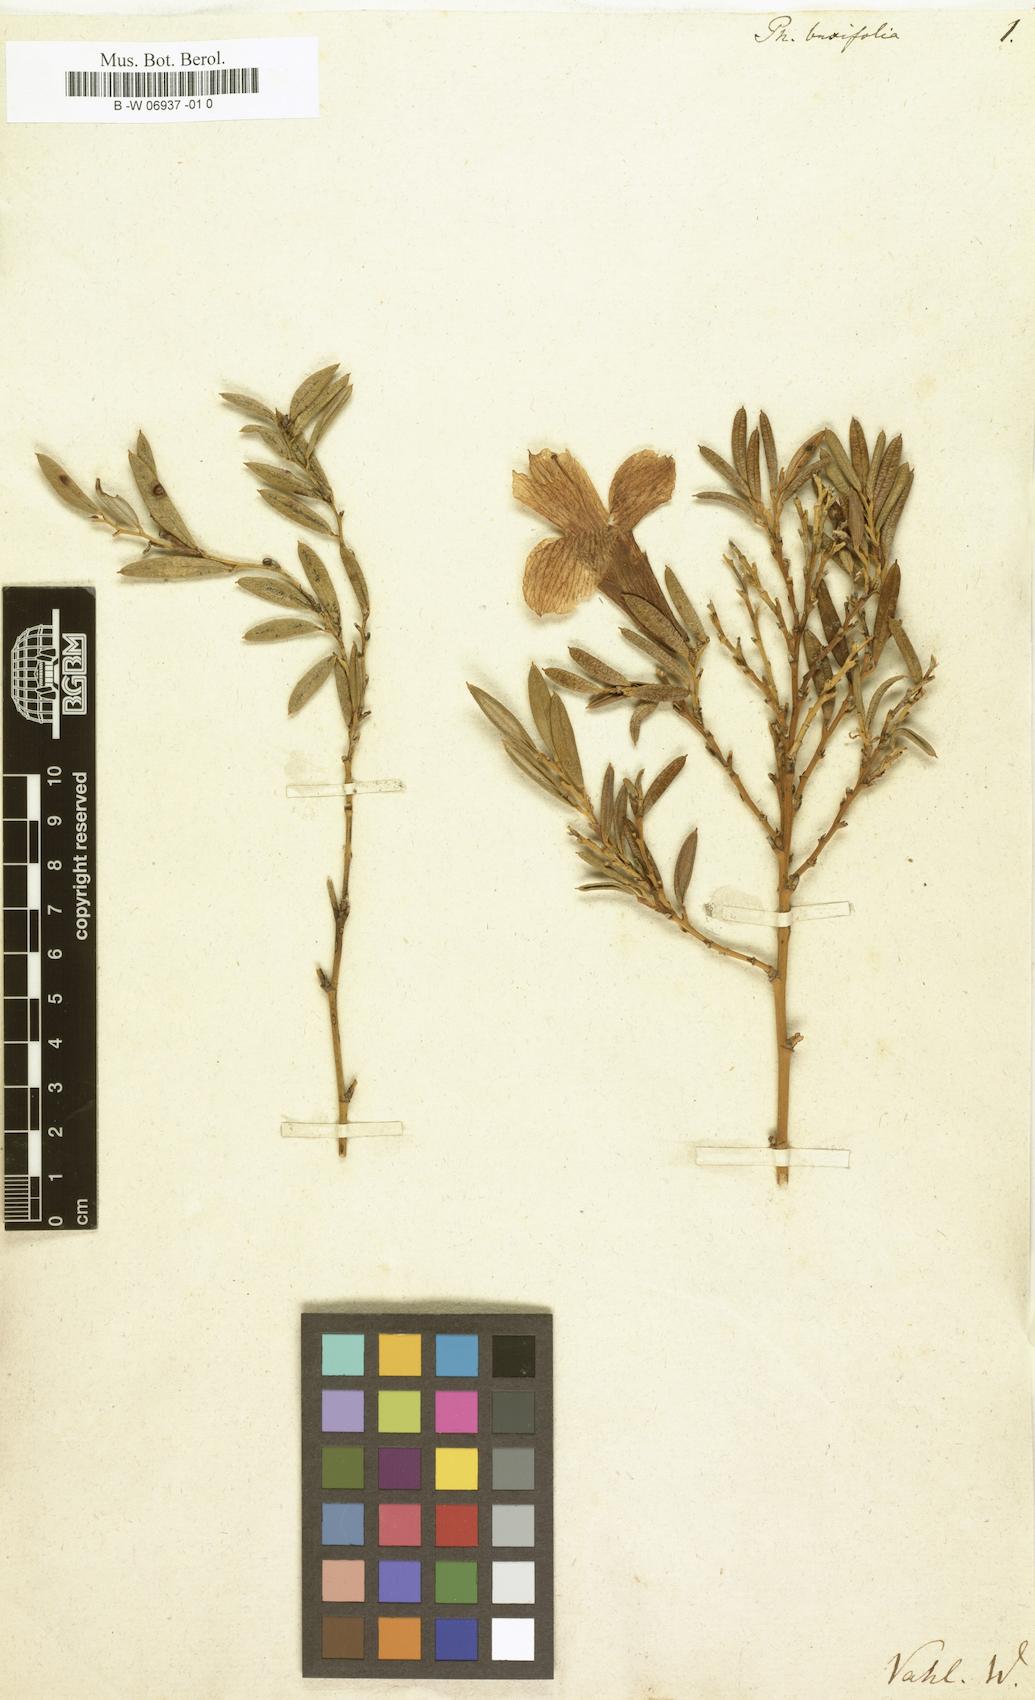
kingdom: Plantae
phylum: Tracheophyta
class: Liliopsida
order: Liliales
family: Philesiaceae
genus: Philesia
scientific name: Philesia magellanica
